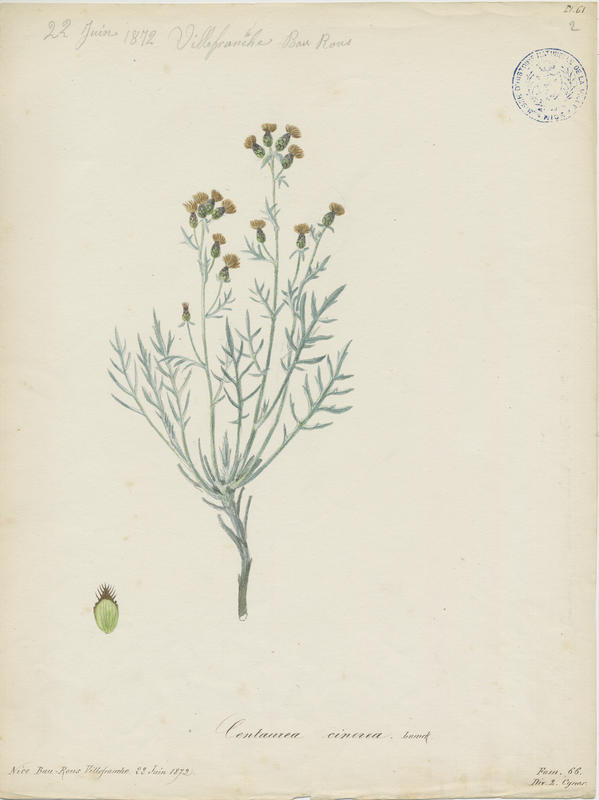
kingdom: Plantae
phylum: Tracheophyta
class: Magnoliopsida
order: Asterales
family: Asteraceae
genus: Centaurea
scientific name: Centaurea pseudocineraria
